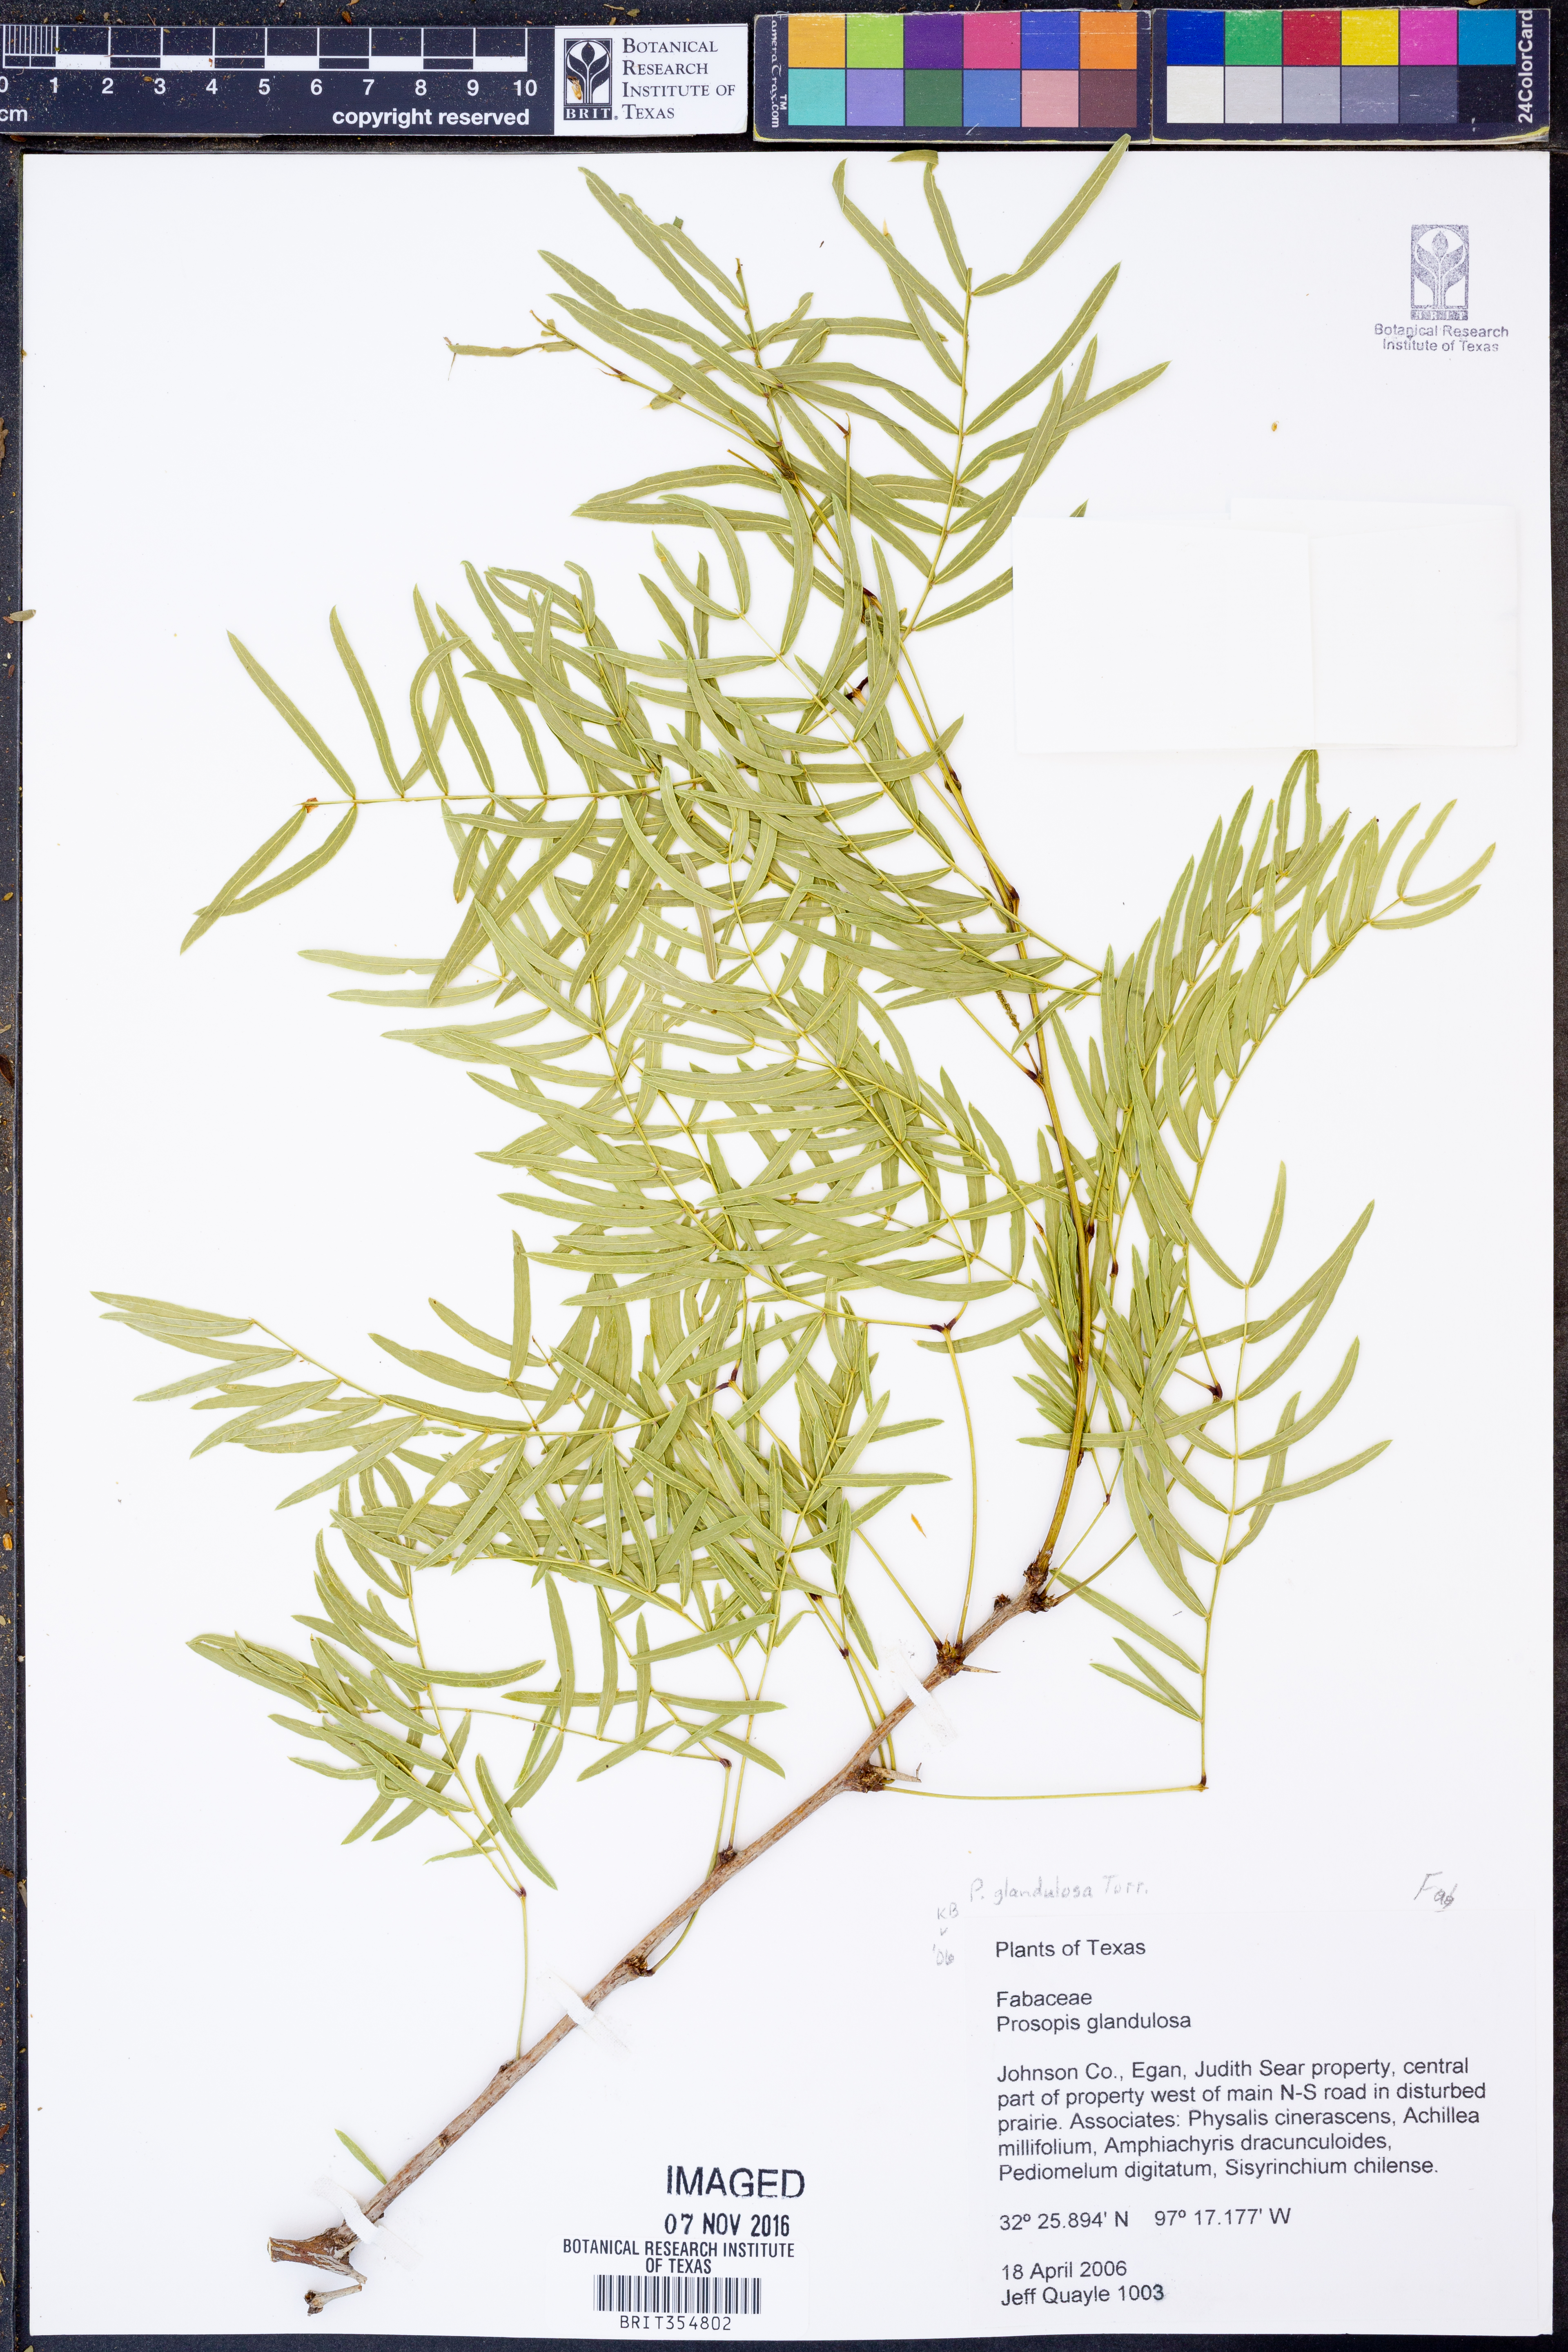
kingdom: Plantae
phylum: Tracheophyta
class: Magnoliopsida
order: Fabales
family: Fabaceae
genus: Prosopis
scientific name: Prosopis glandulosa
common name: Honey mesquite
